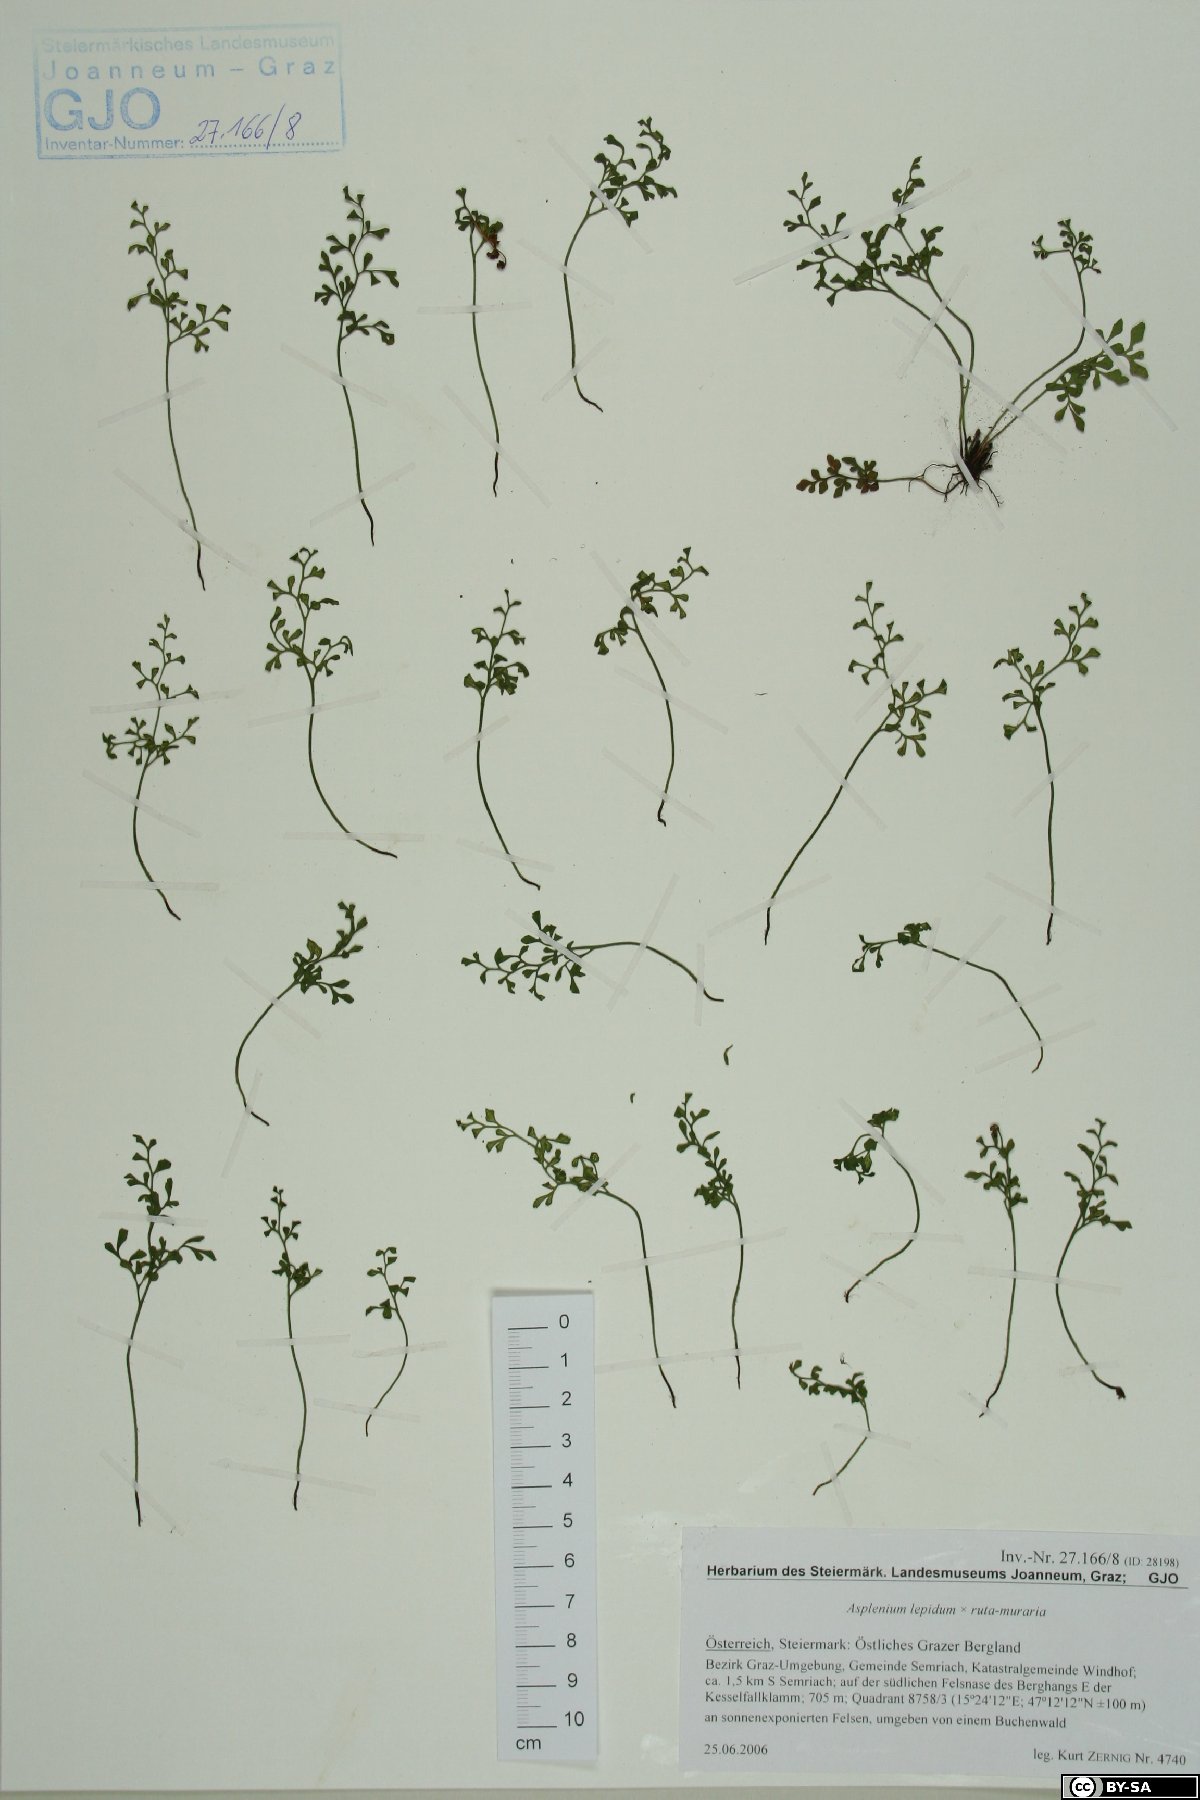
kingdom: Plantae
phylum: Tracheophyta
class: Polypodiopsida
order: Polypodiales
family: Aspleniaceae
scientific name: Aspleniaceae
